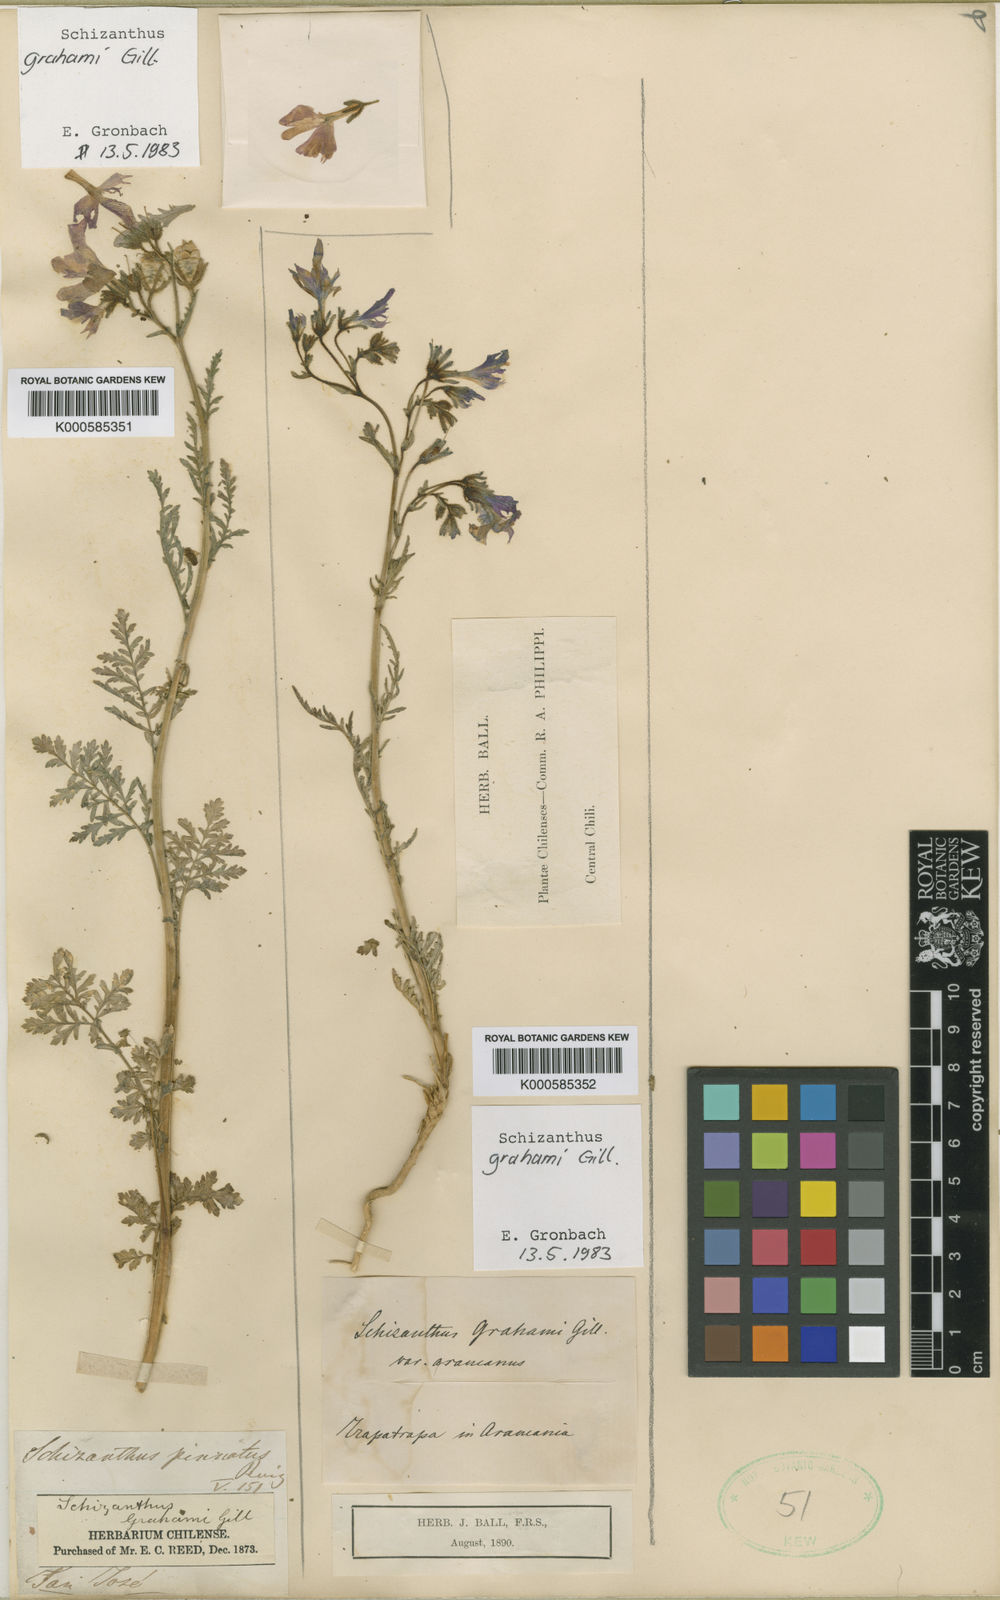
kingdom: Plantae
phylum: Tracheophyta
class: Magnoliopsida
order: Solanales
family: Solanaceae
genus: Schizanthus
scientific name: Schizanthus grahamii
